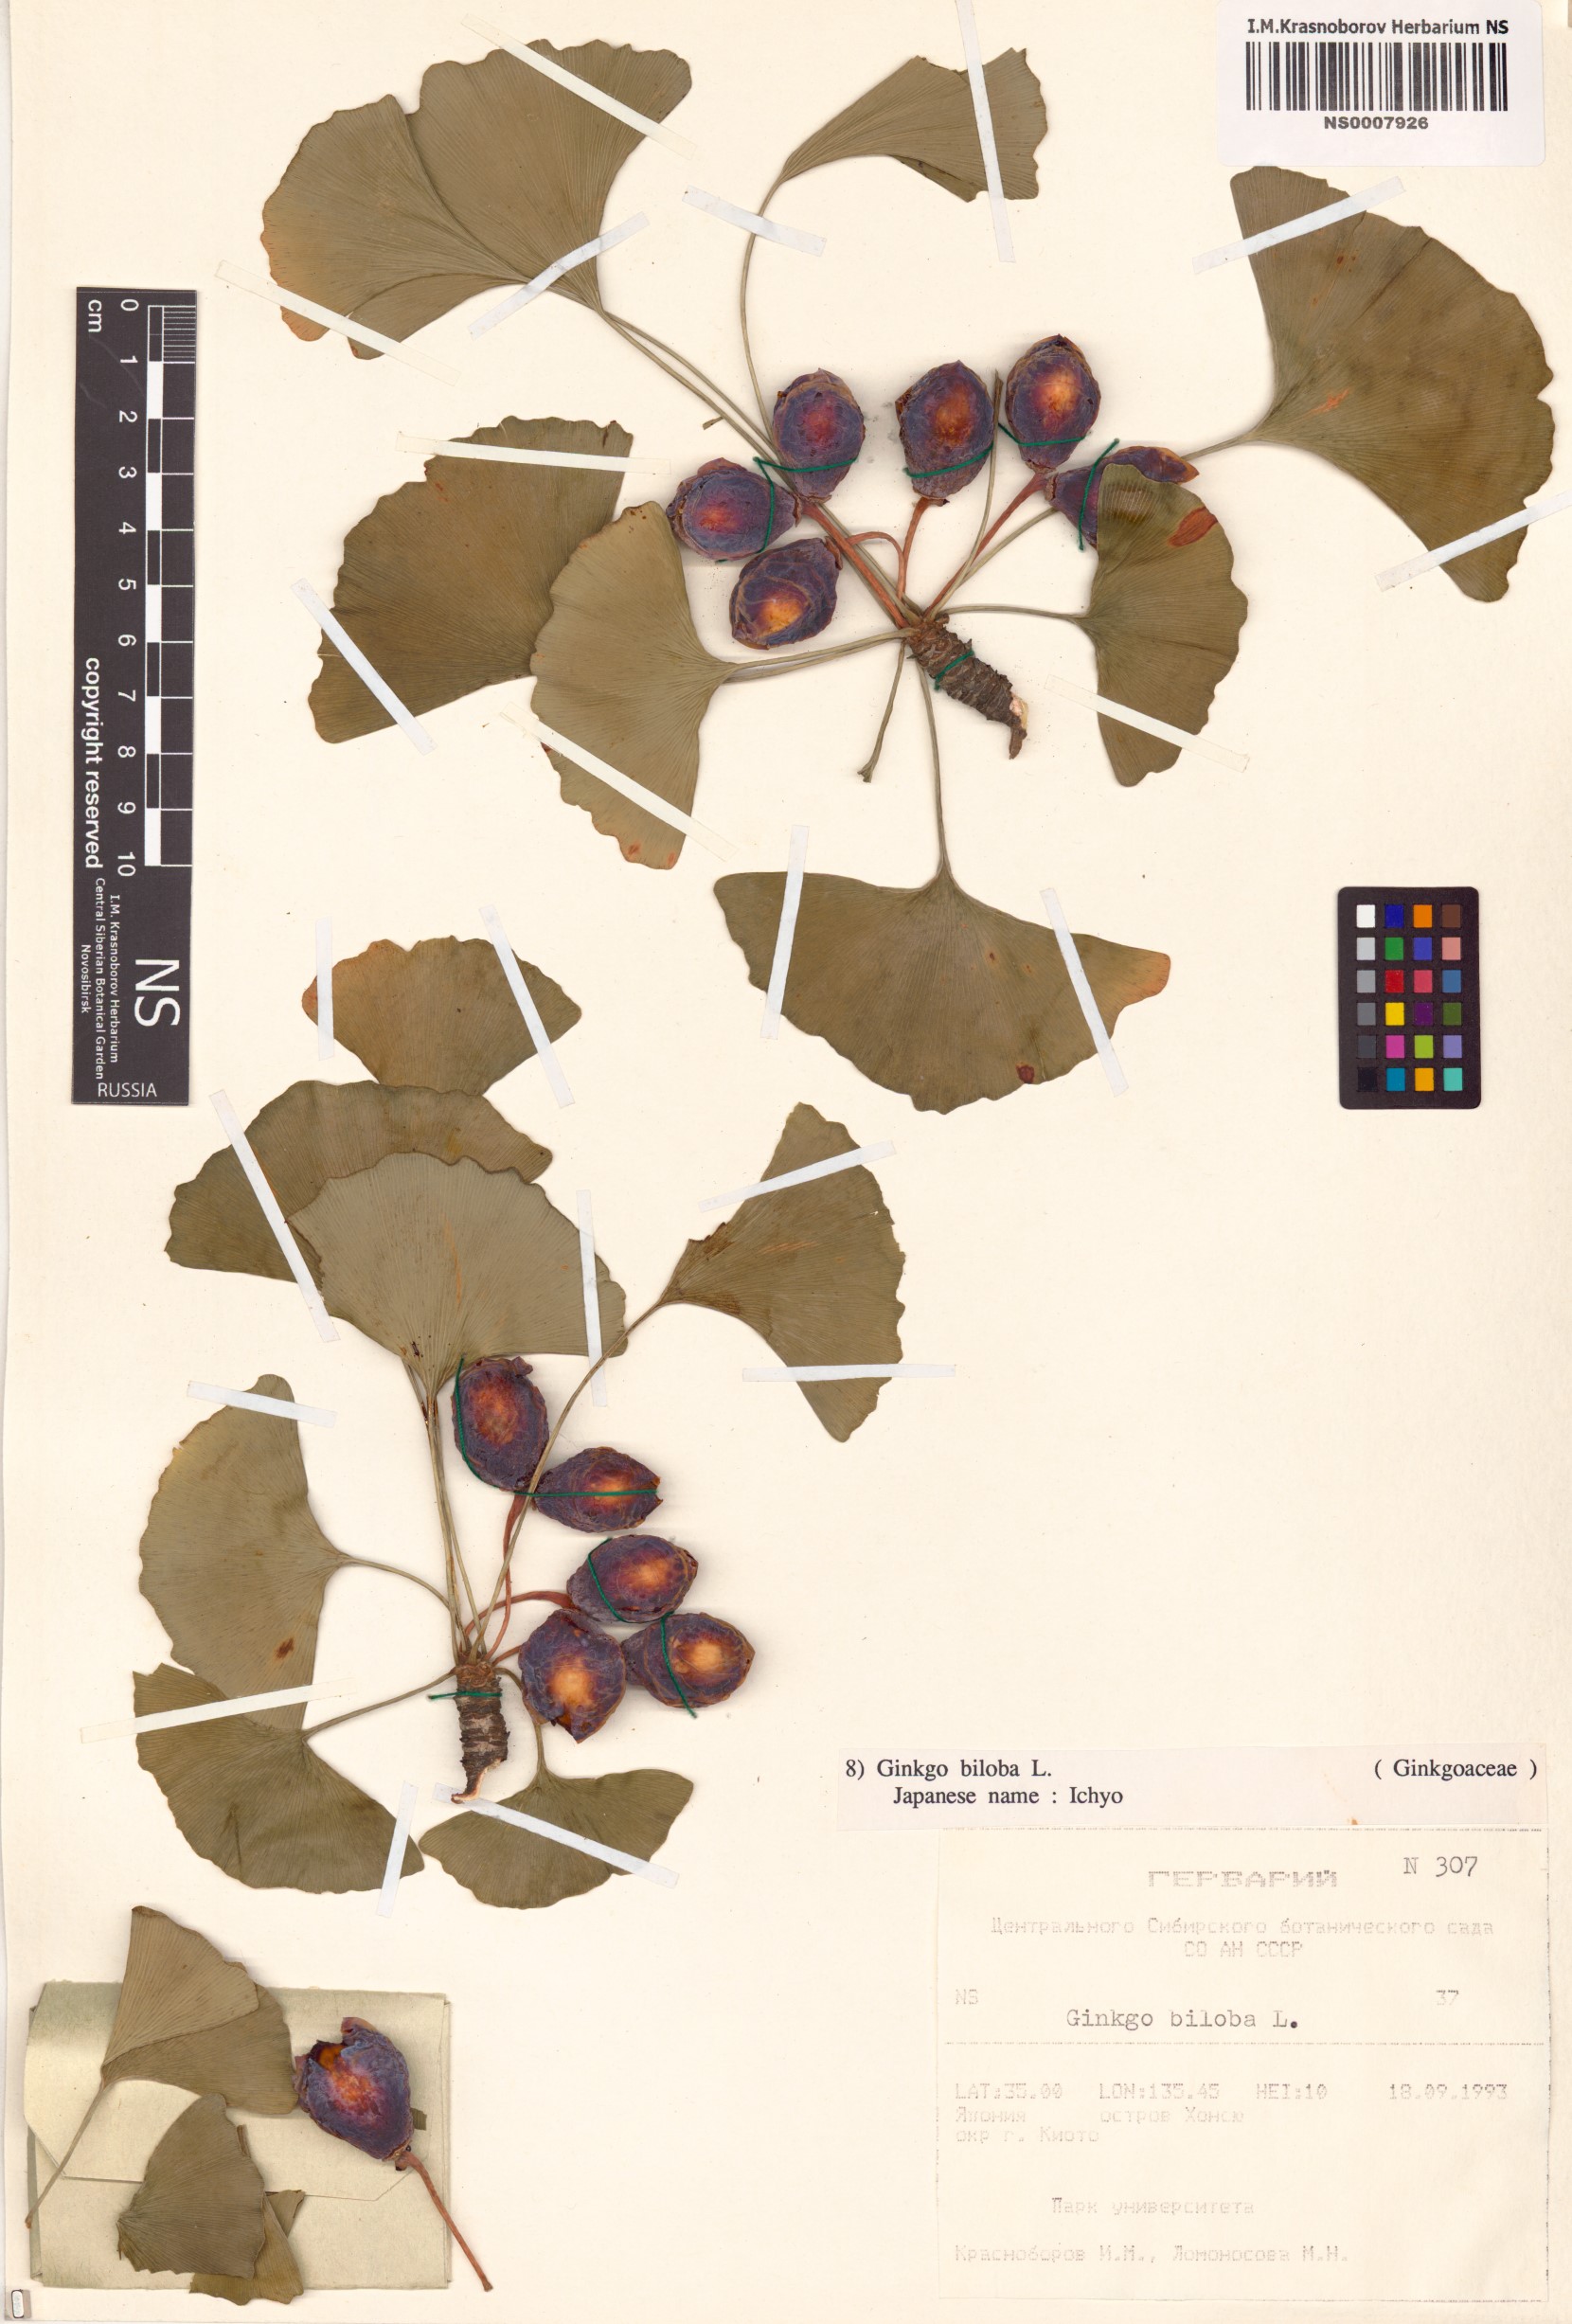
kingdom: Plantae
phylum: Tracheophyta
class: Ginkgoopsida
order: Ginkgoales
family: Ginkgoaceae
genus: Ginkgo
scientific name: Ginkgo biloba
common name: Ginkgo
